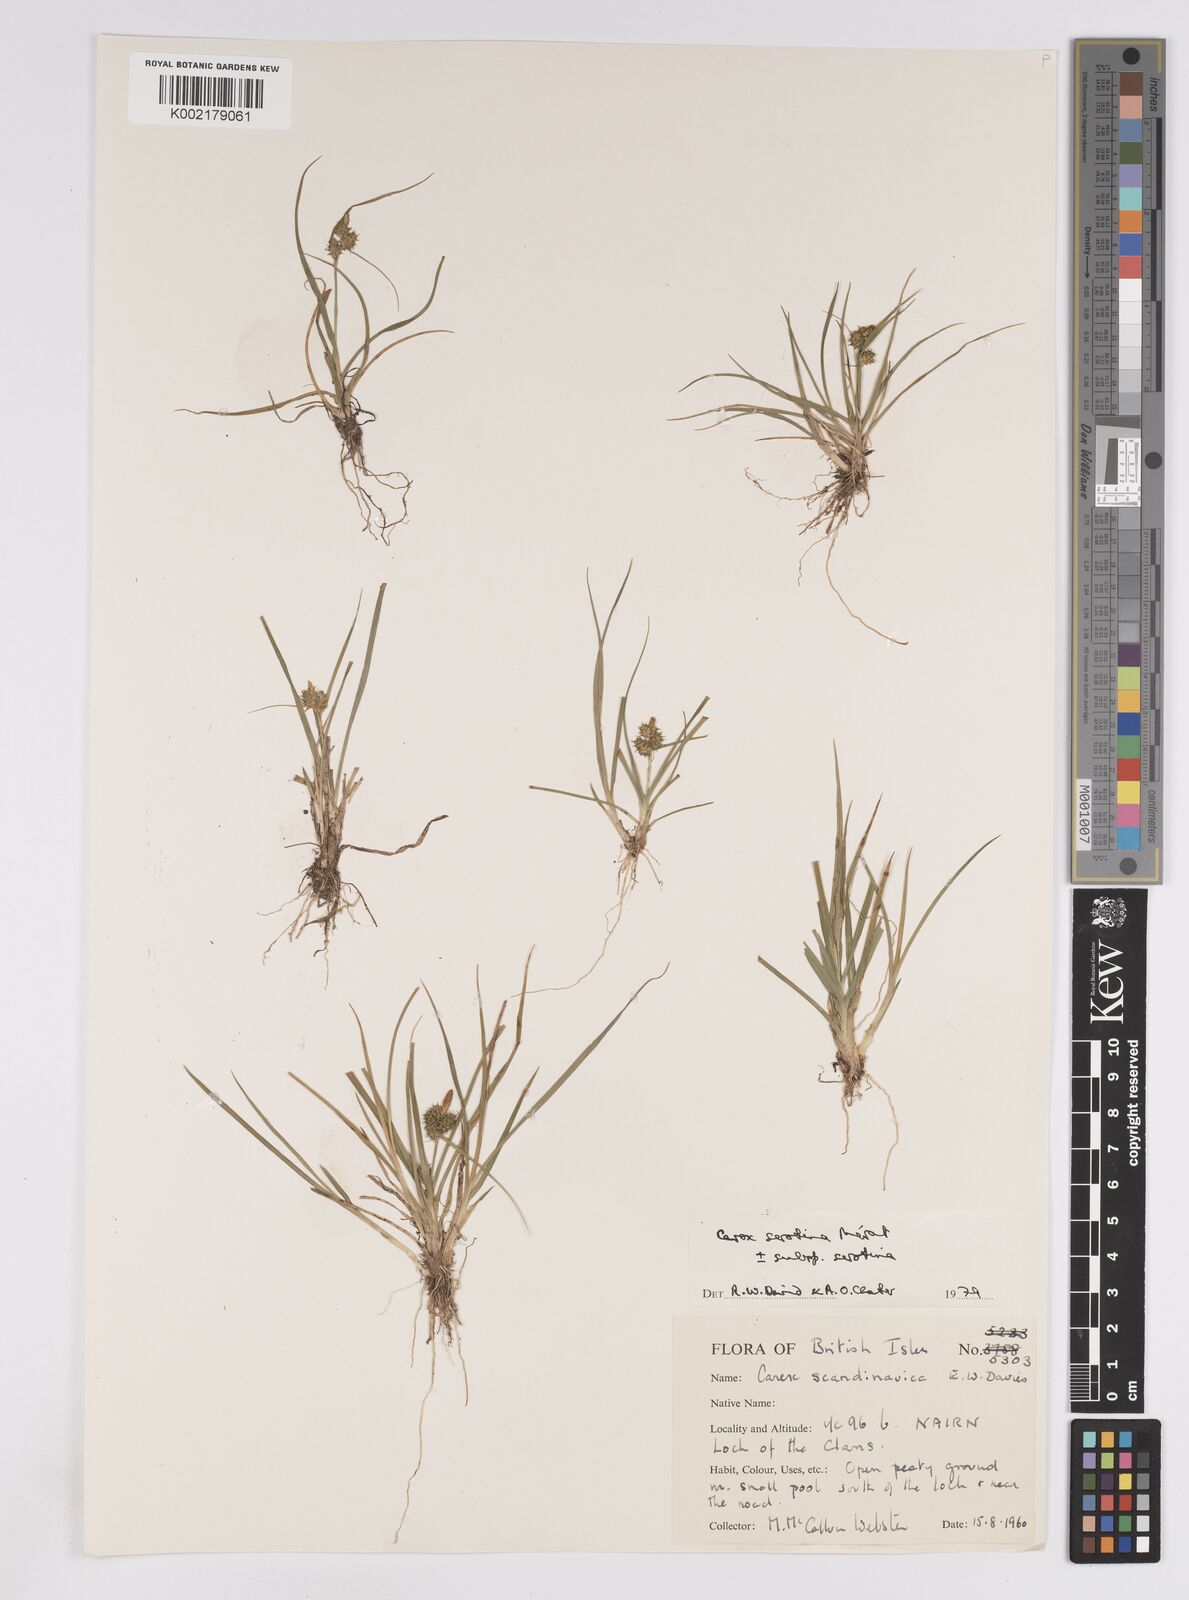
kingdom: Plantae
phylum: Tracheophyta
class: Liliopsida
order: Poales
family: Cyperaceae
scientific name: Cyperaceae
